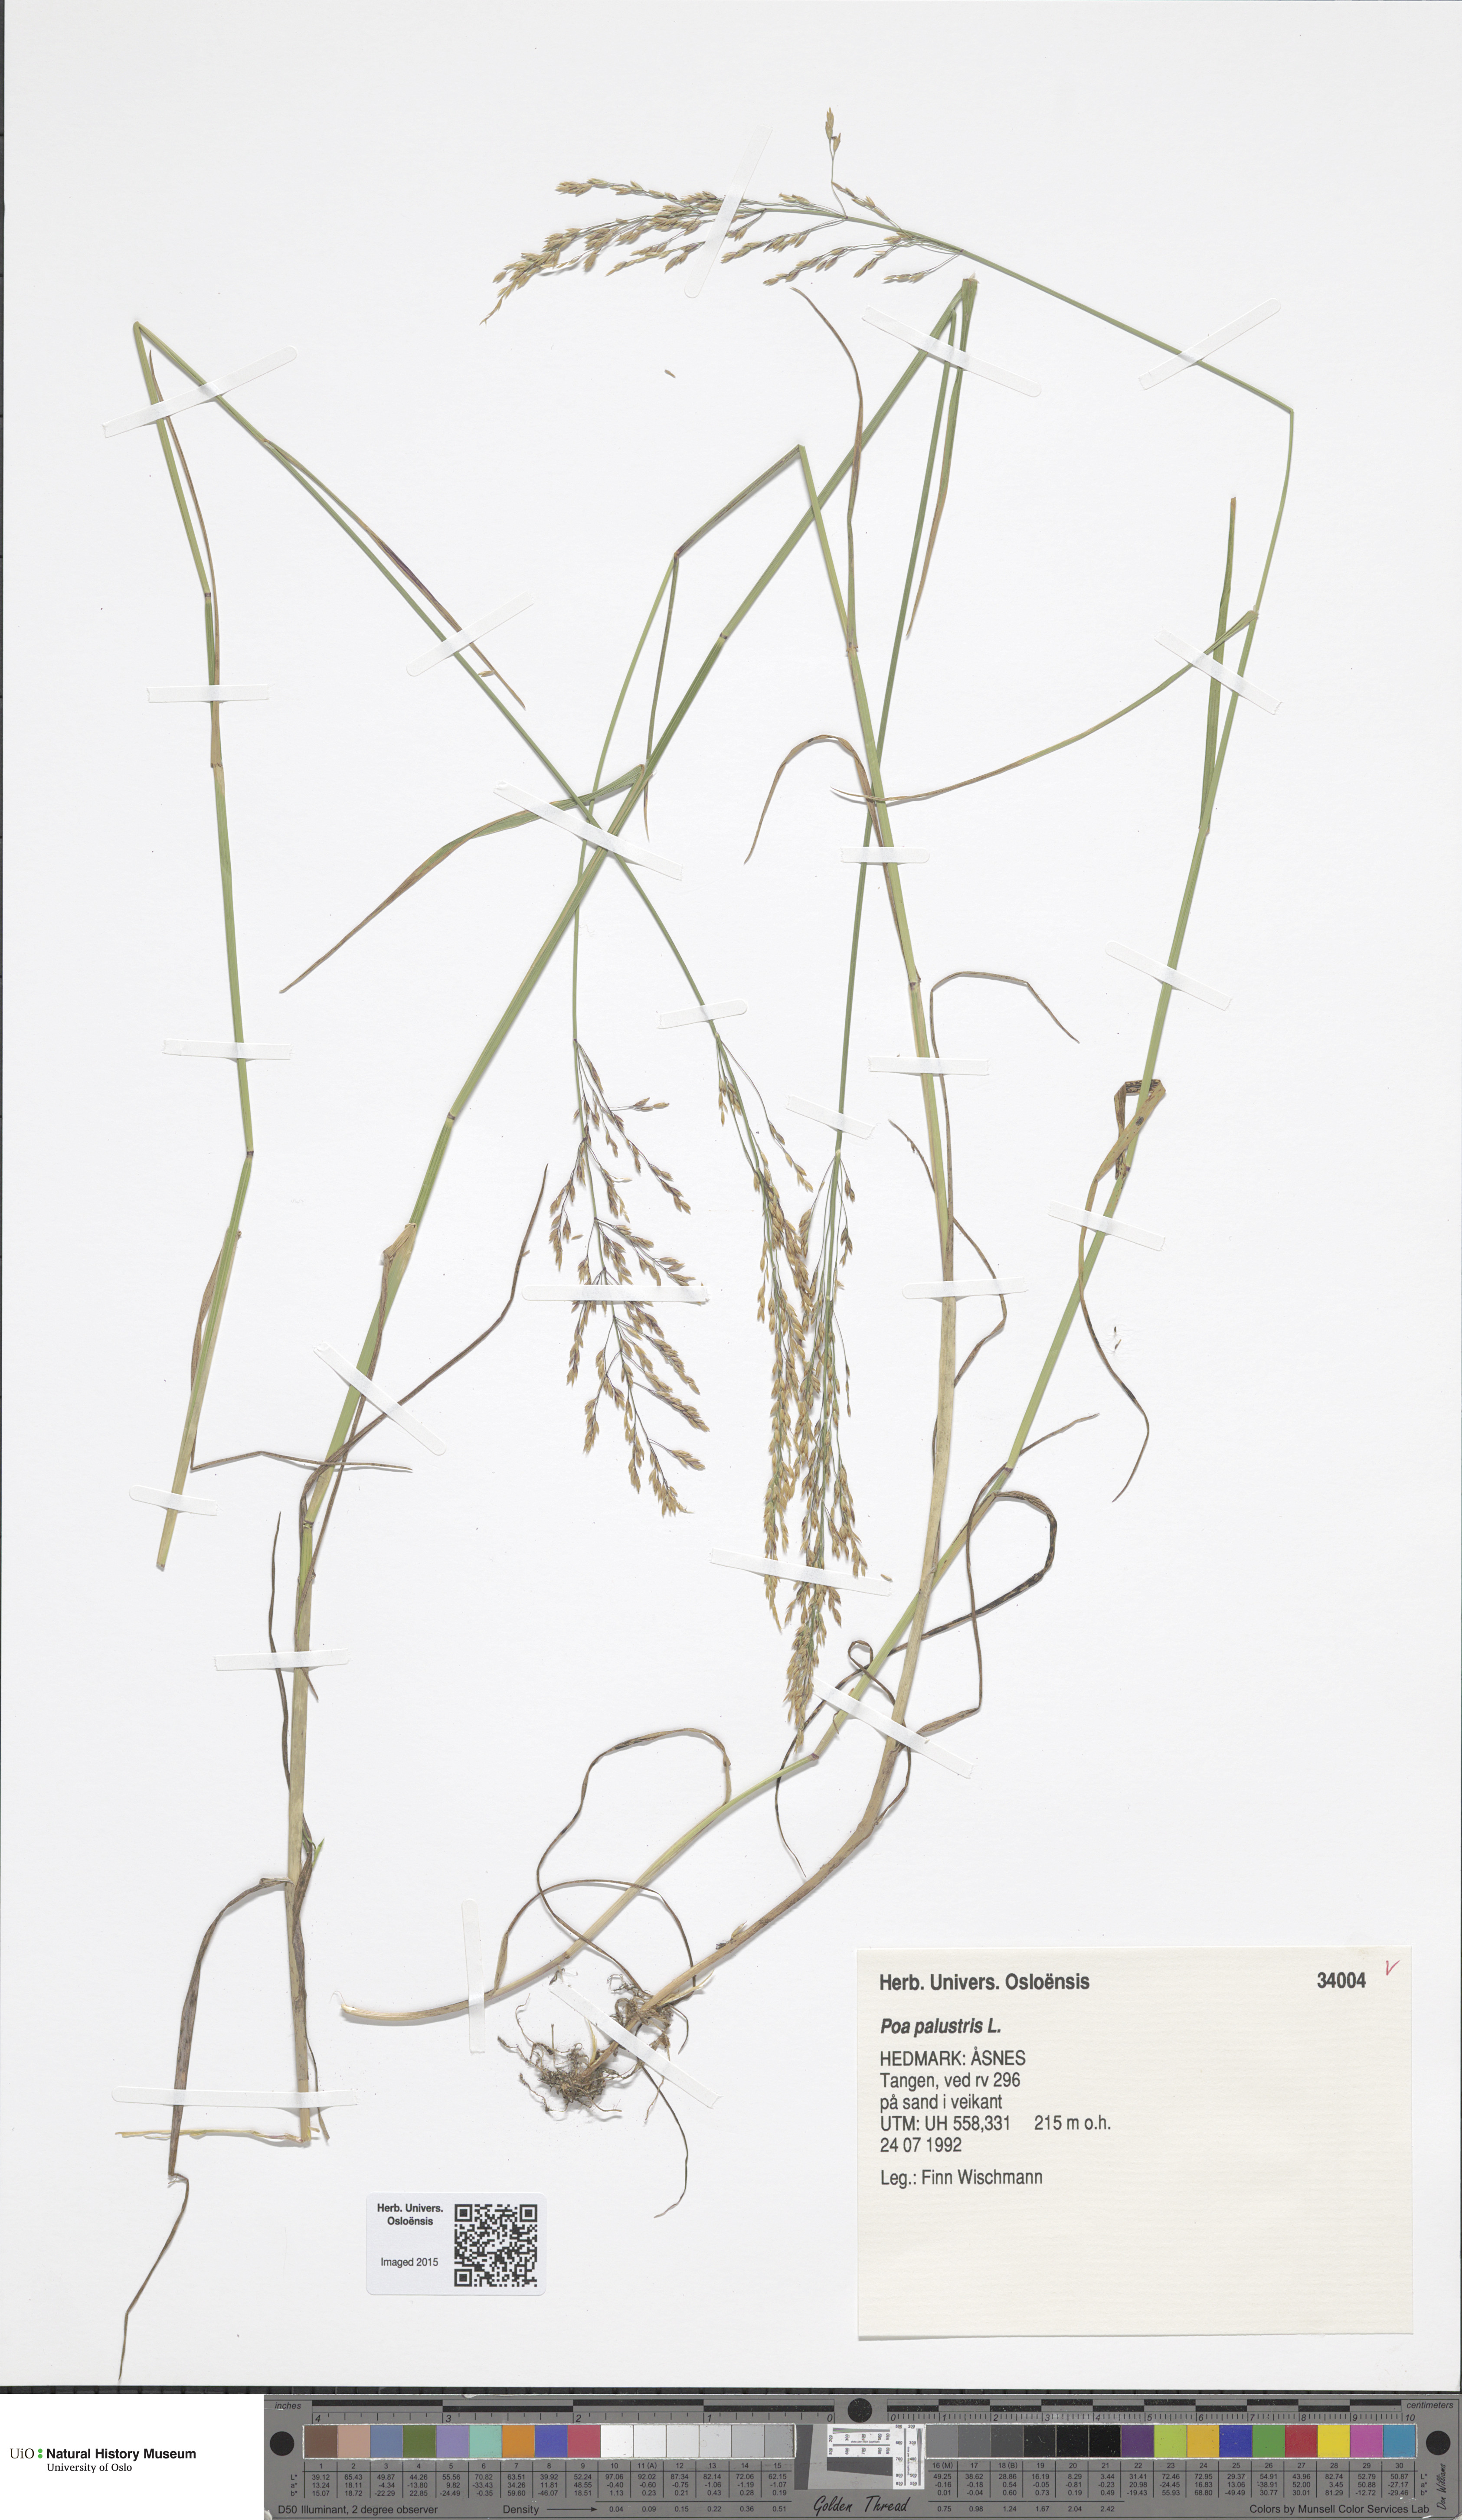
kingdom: Plantae
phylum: Tracheophyta
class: Liliopsida
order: Poales
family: Poaceae
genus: Poa
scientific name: Poa palustris
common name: Swamp meadow-grass
